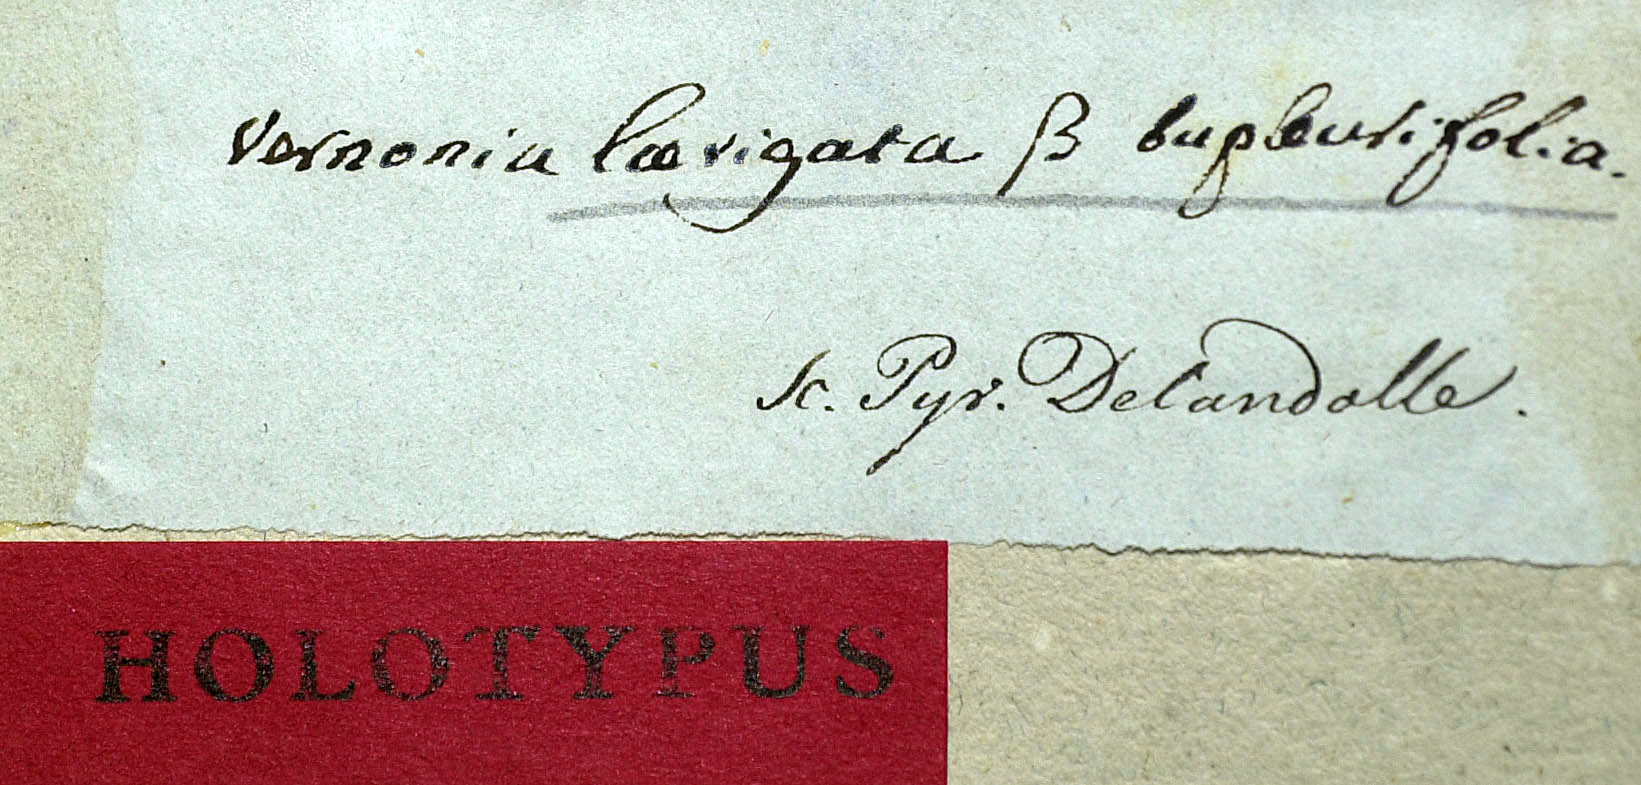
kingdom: Plantae
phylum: Tracheophyta
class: Magnoliopsida
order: Asterales
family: Asteraceae
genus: Lessingianthus
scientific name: Lessingianthus bupleurifolius
